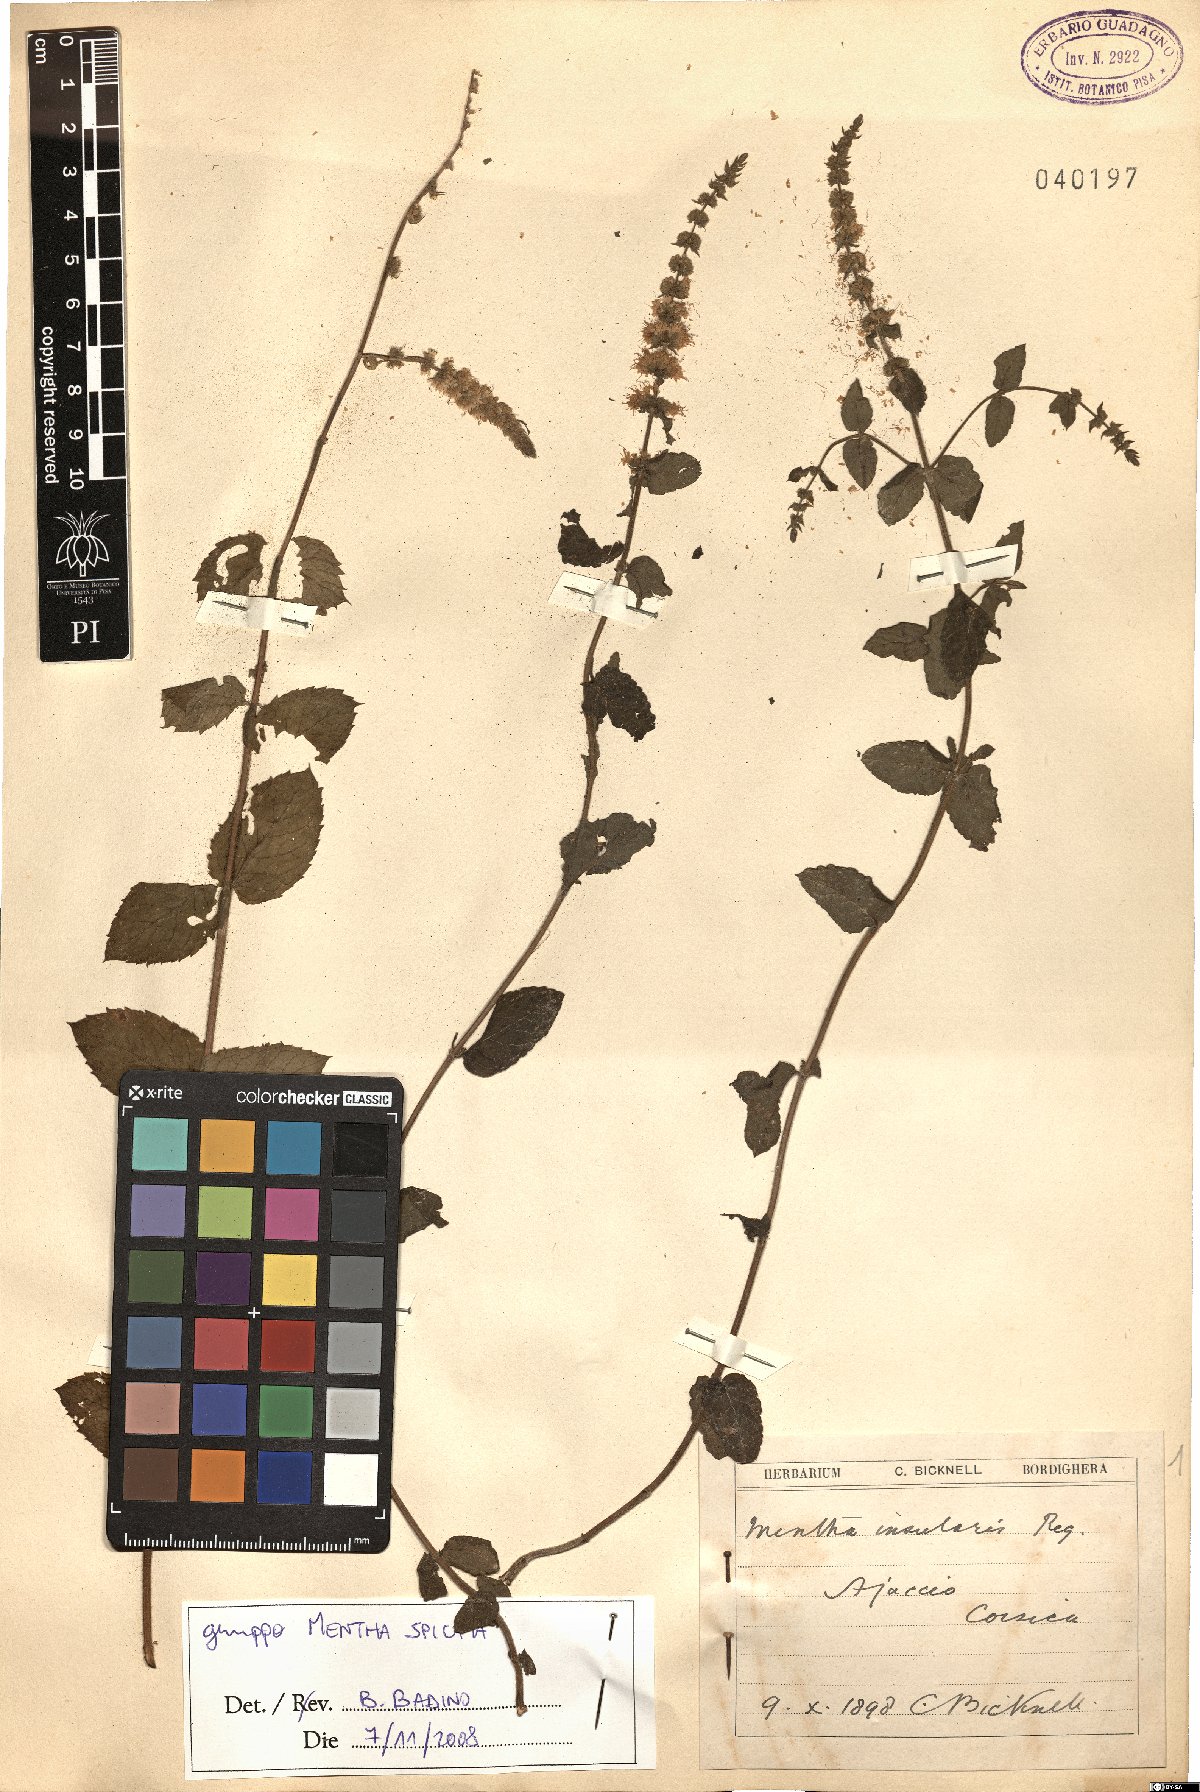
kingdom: Plantae
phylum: Tracheophyta
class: Magnoliopsida
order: Lamiales
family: Lamiaceae
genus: Mentha
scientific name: Mentha spicata
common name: Spearmint
